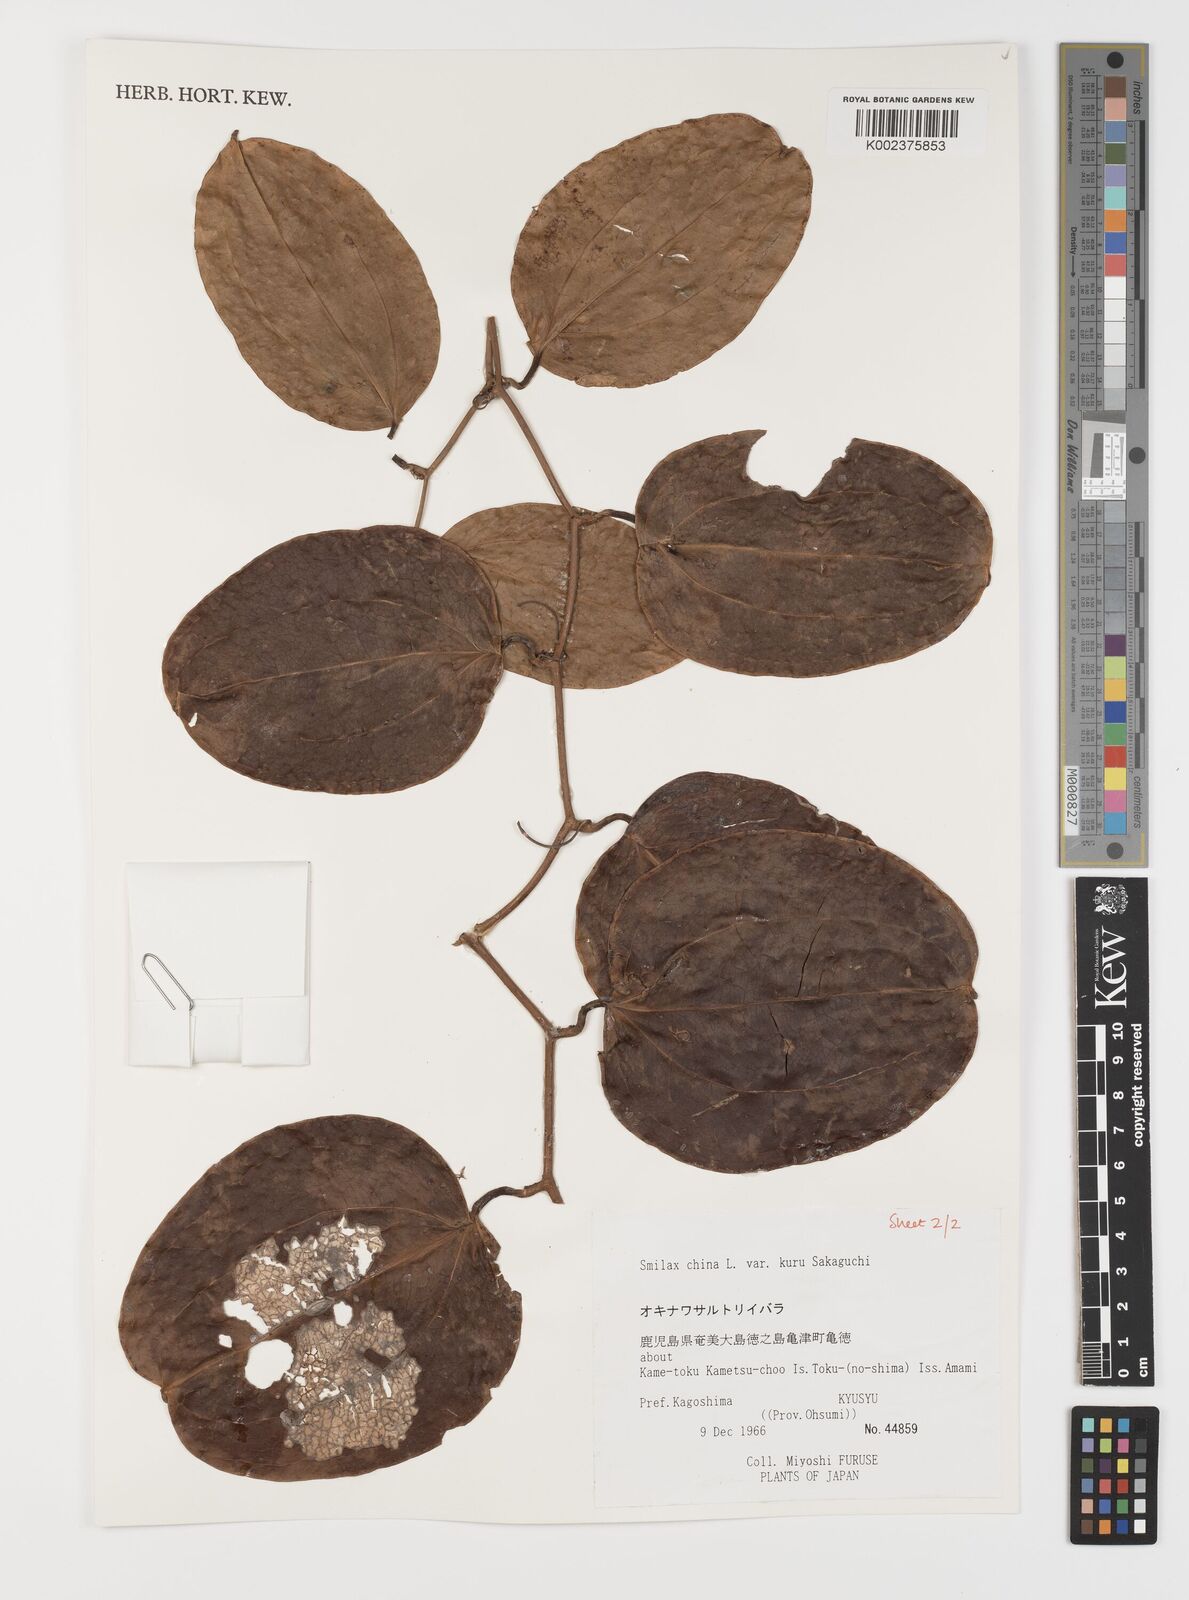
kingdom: Plantae
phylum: Tracheophyta
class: Liliopsida
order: Liliales
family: Smilacaceae
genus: Smilax
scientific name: Smilax china
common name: Chinaroot
